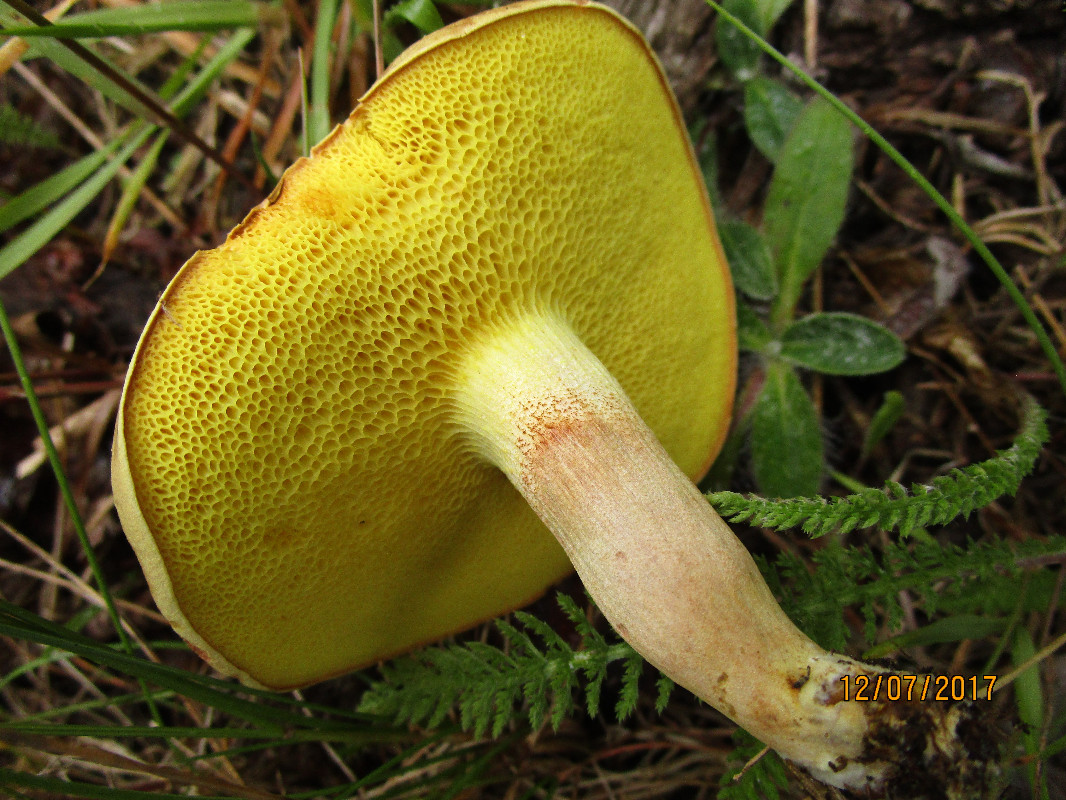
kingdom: Fungi
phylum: Basidiomycota
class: Agaricomycetes
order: Boletales
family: Boletaceae
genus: Xerocomus
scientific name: Xerocomus subtomentosus
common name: filtet rørhat
